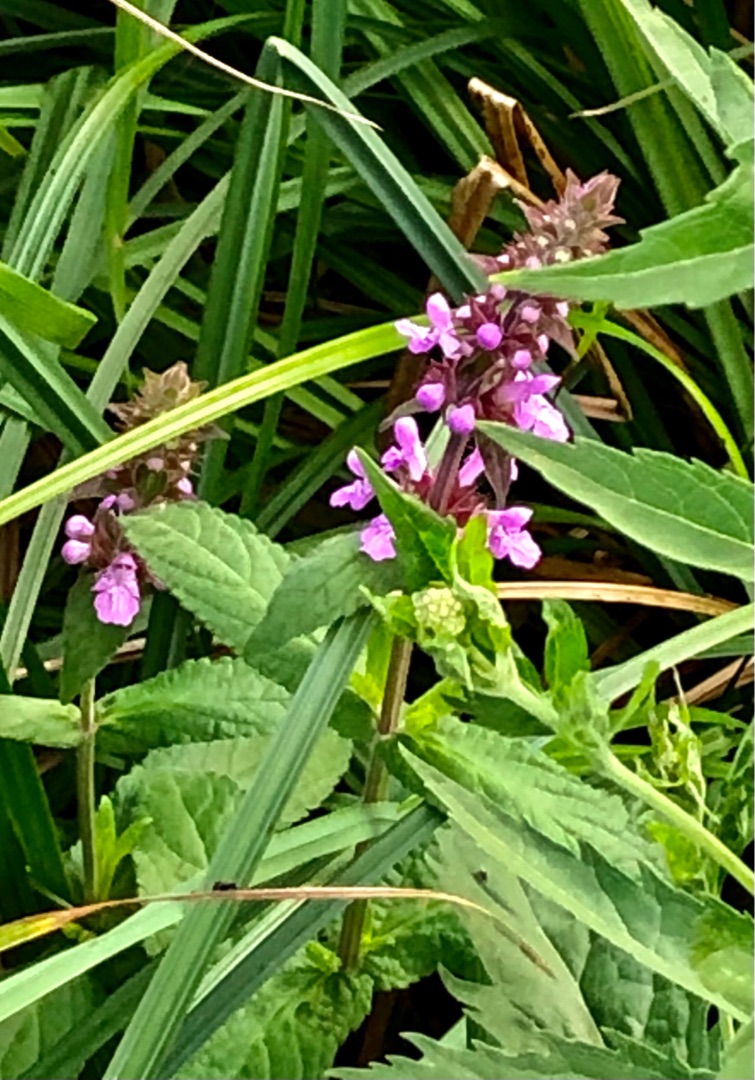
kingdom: Plantae
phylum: Tracheophyta
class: Magnoliopsida
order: Lamiales
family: Lamiaceae
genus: Stachys
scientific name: Stachys palustris
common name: Kær-galtetand
